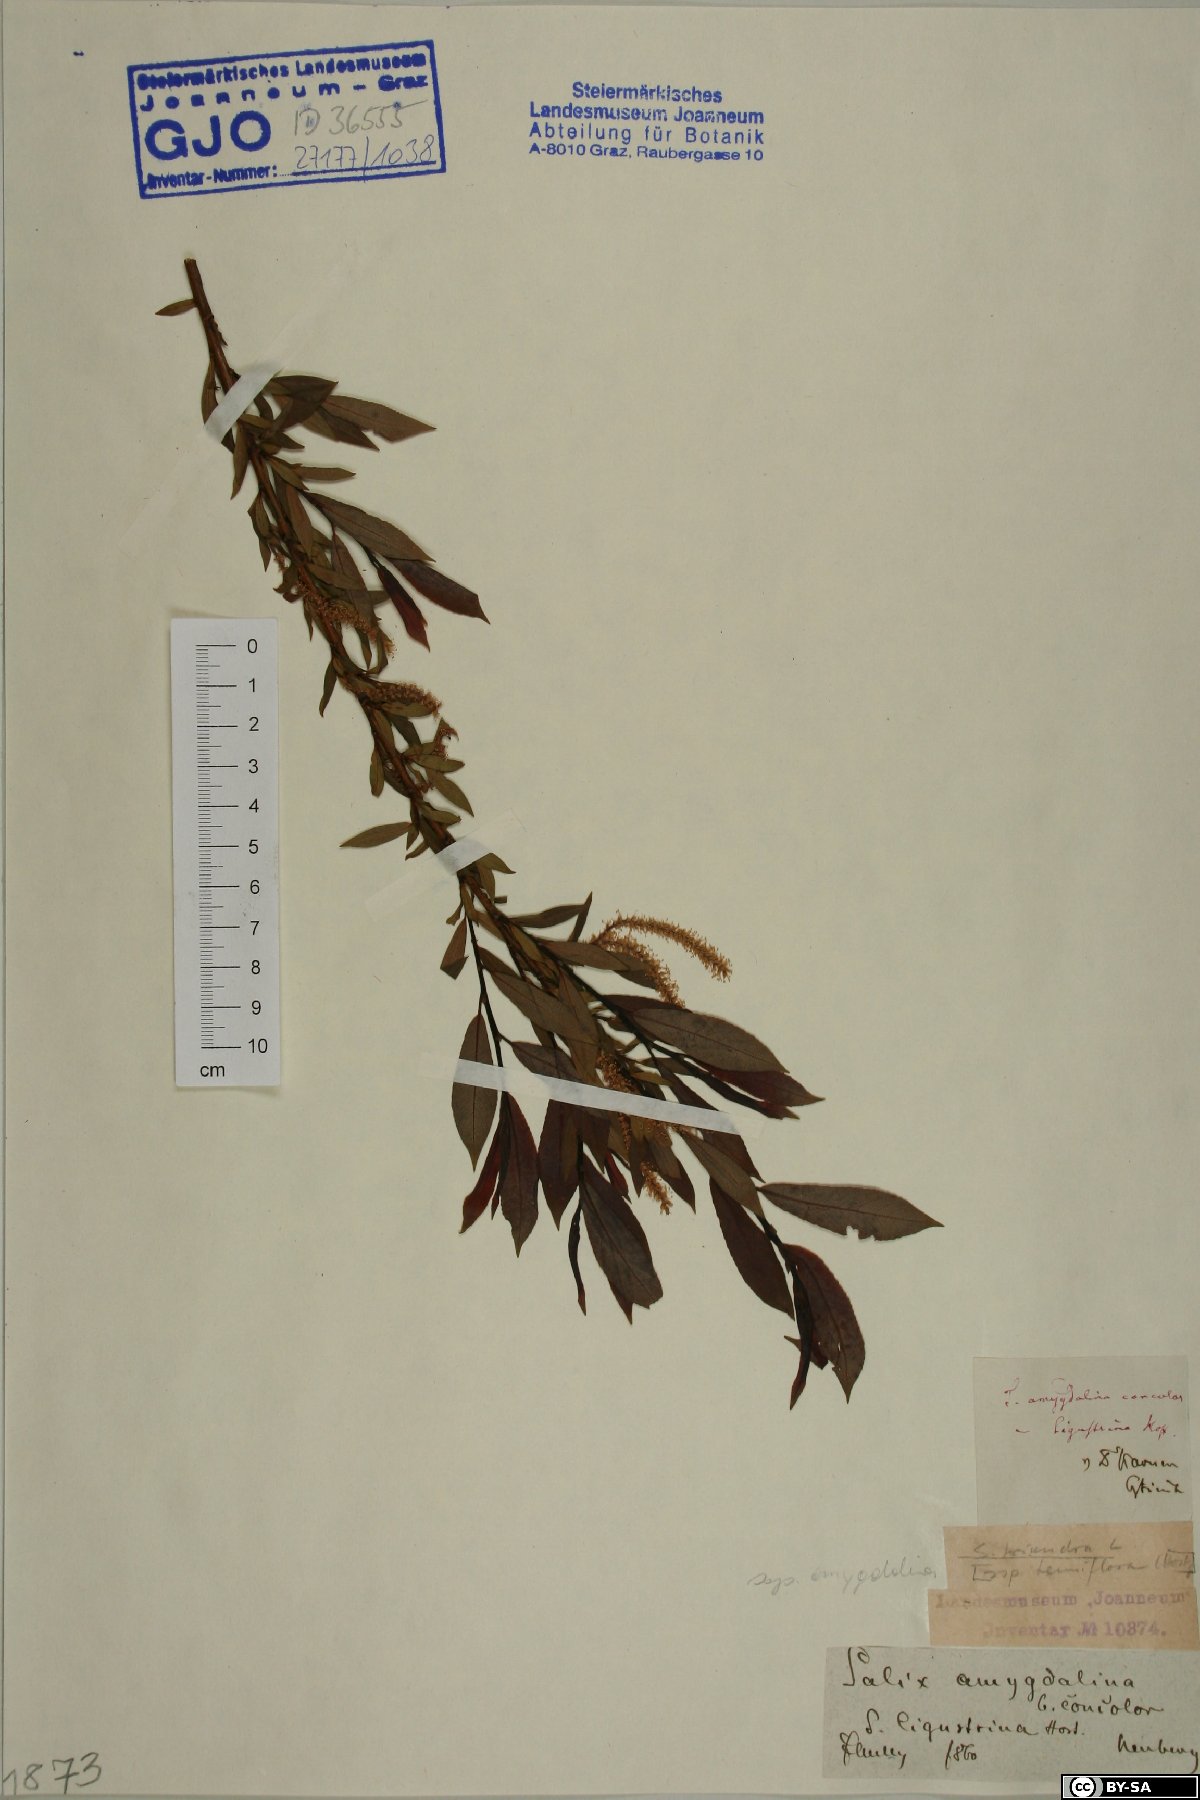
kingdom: Plantae
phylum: Tracheophyta
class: Magnoliopsida
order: Malpighiales
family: Salicaceae
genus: Salix
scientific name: Salix triandra
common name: Almond willow
